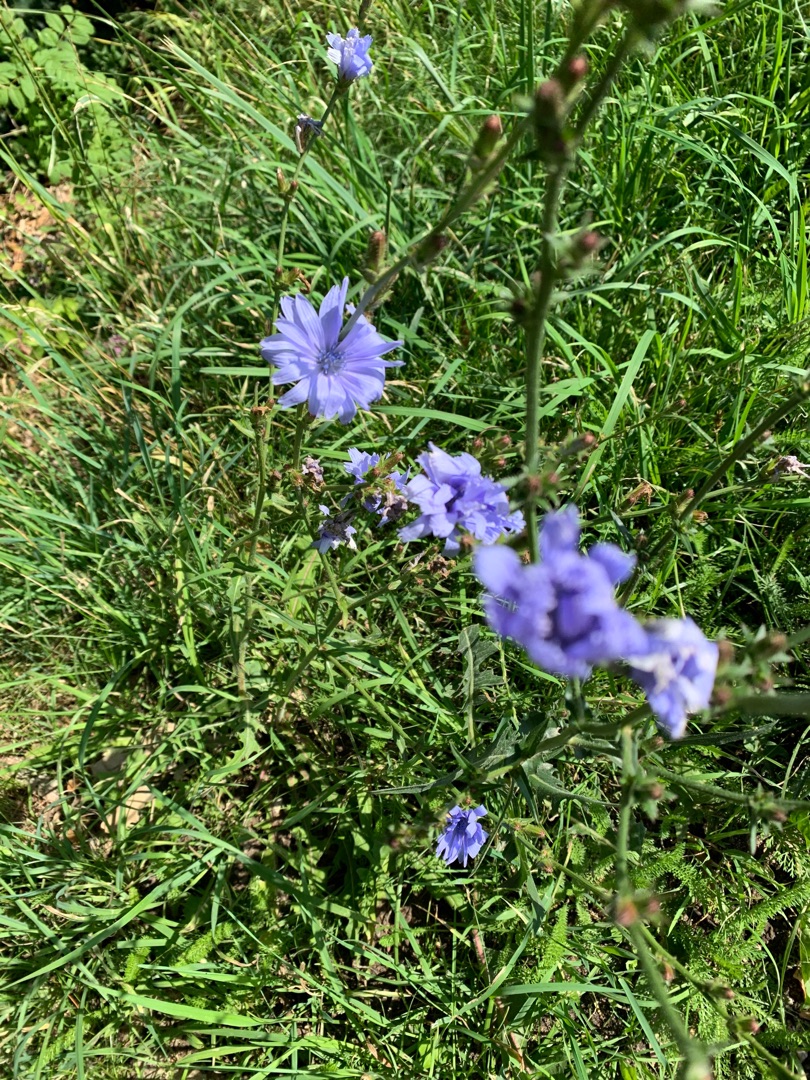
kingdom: Plantae
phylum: Tracheophyta
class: Magnoliopsida
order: Asterales
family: Asteraceae
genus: Cichorium
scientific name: Cichorium intybus
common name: Cikorie
